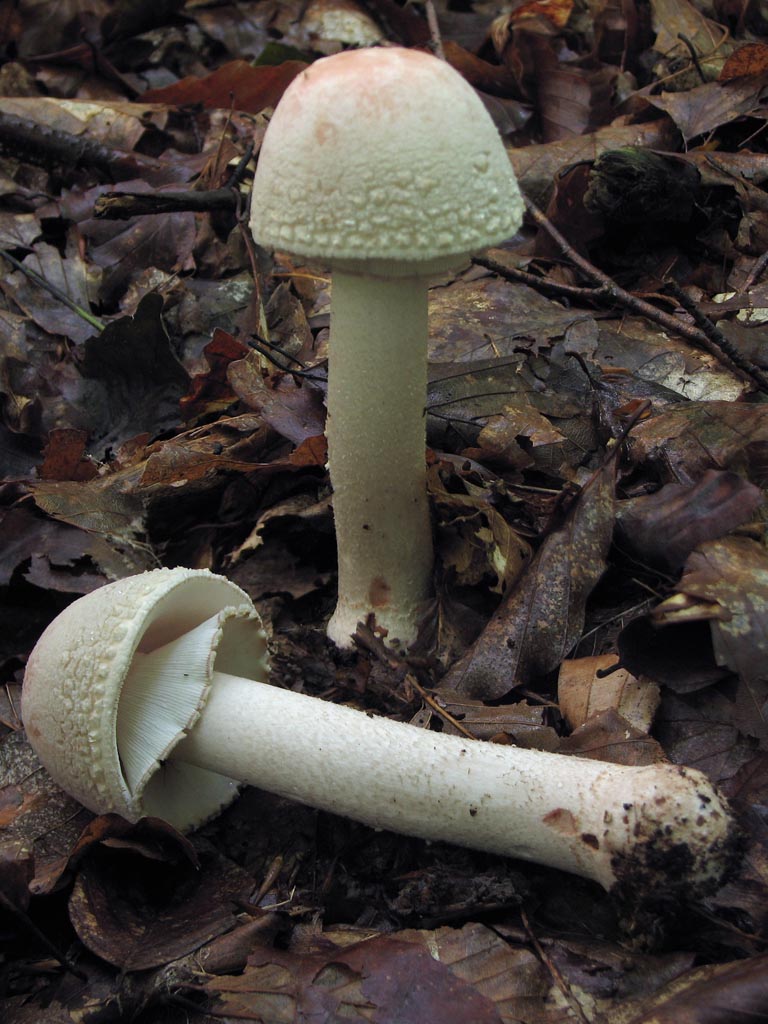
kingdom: Fungi
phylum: Basidiomycota
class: Agaricomycetes
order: Agaricales
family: Amanitaceae
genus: Amanita
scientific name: Amanita rubescens
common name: rødmende fluesvamp
